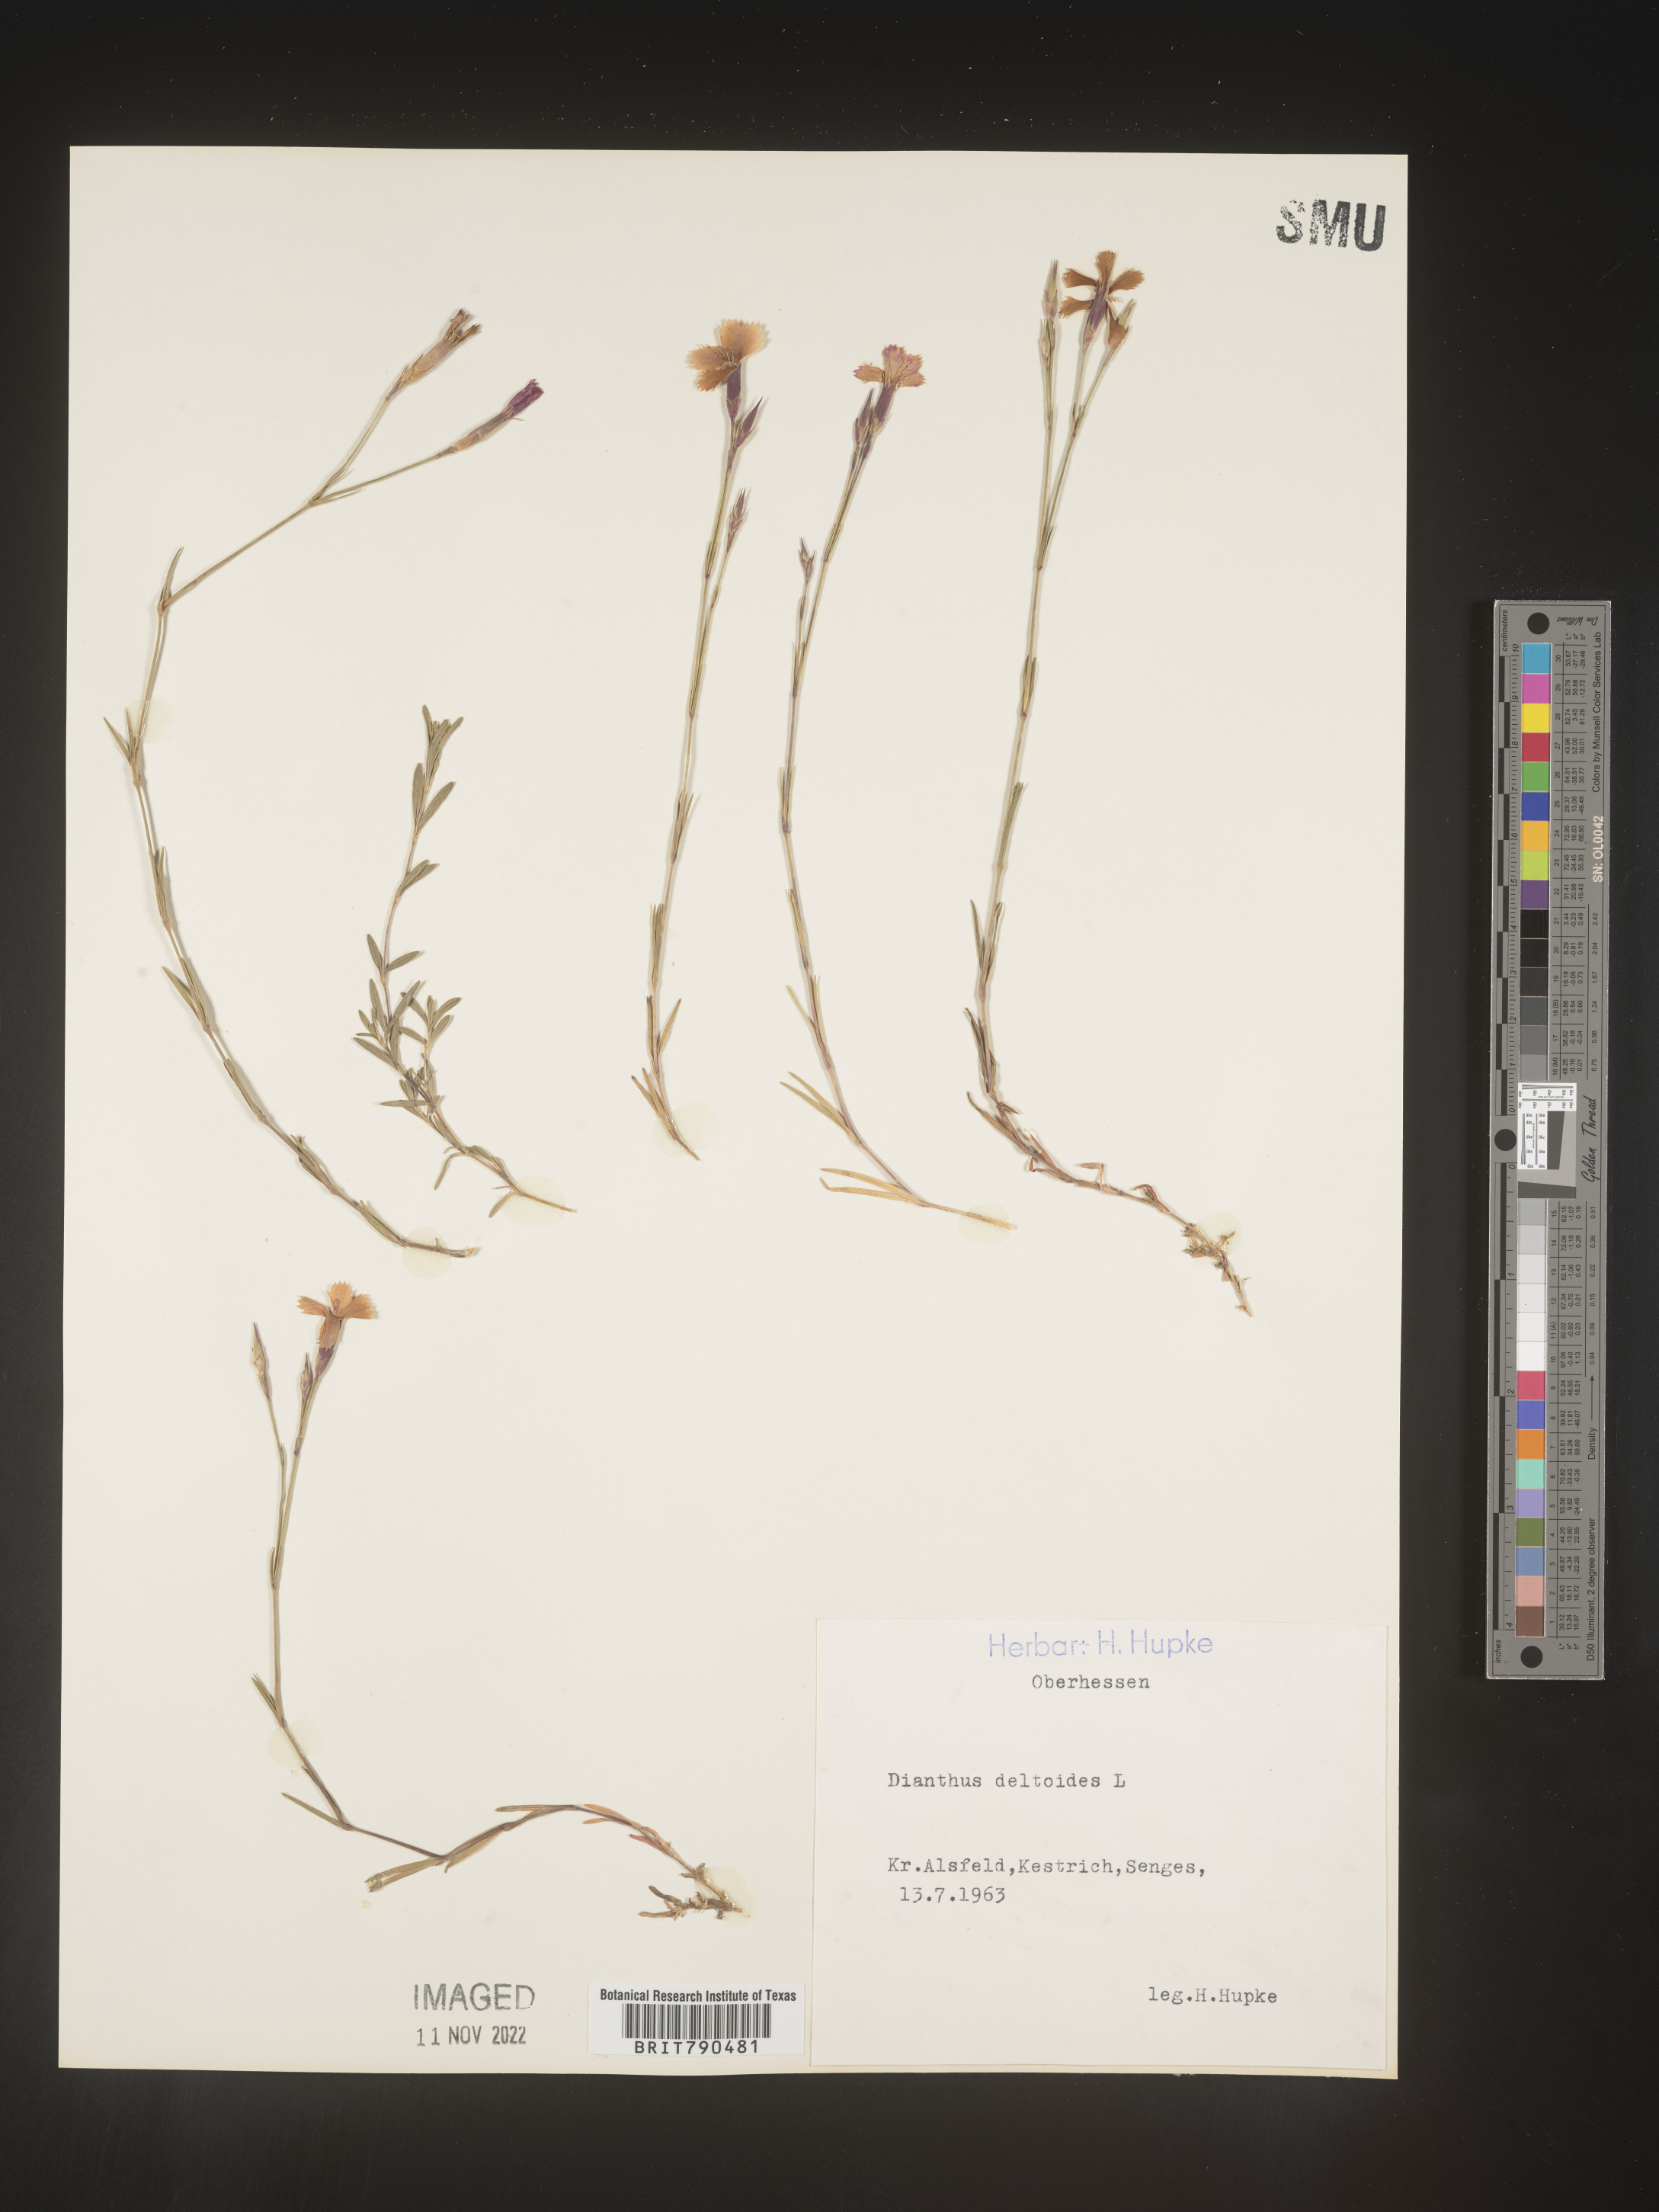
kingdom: Plantae
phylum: Tracheophyta
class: Magnoliopsida
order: Caryophyllales
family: Caryophyllaceae
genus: Dianthus
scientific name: Dianthus deltoides
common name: Maiden pink
